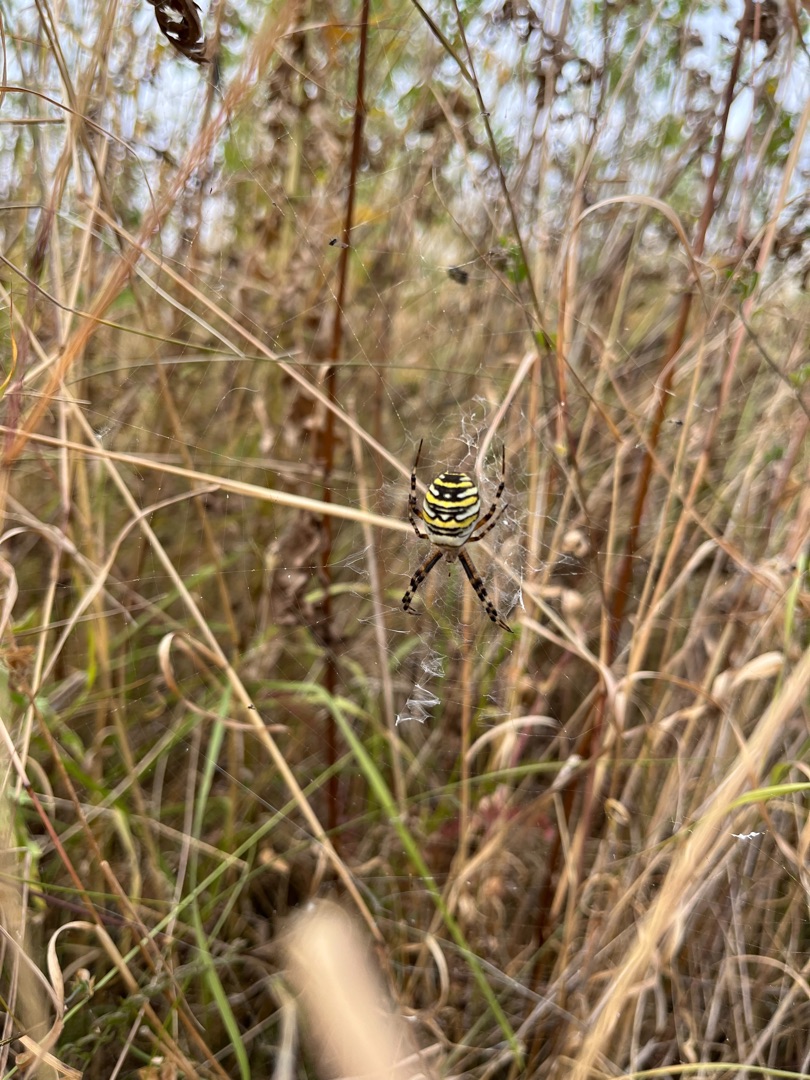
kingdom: Animalia
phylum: Arthropoda
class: Arachnida
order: Araneae
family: Araneidae
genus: Argiope
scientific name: Argiope bruennichi
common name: Hvepseedderkop
